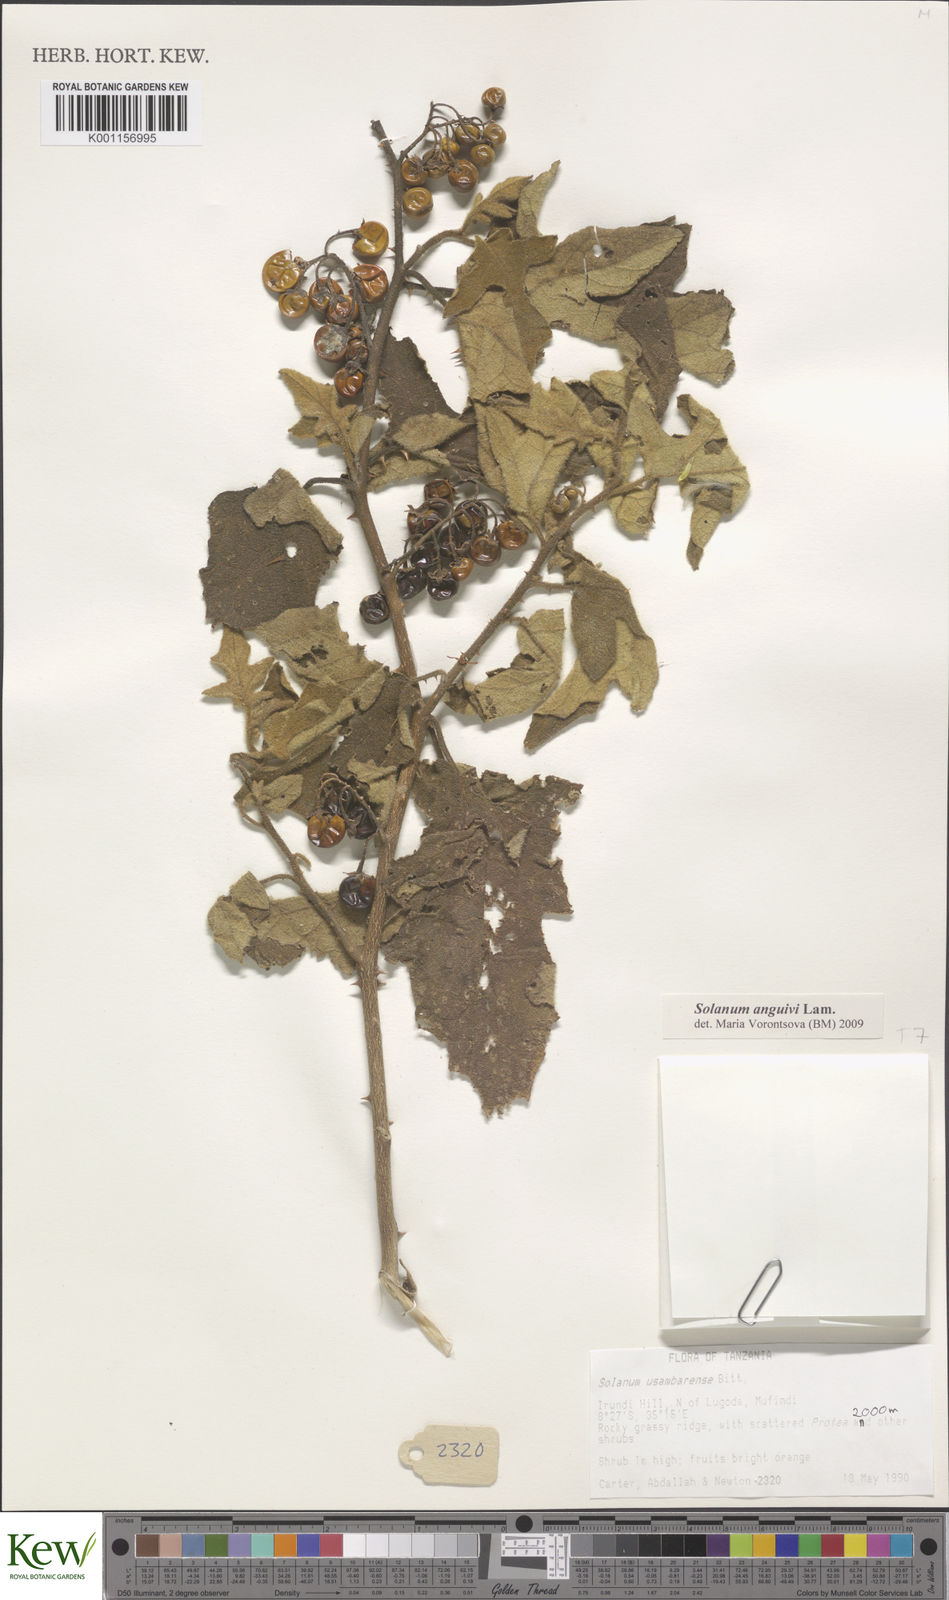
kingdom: Plantae
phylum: Tracheophyta
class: Magnoliopsida
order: Solanales
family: Solanaceae
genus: Solanum
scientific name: Solanum anguivi
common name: Forest bitterberry
